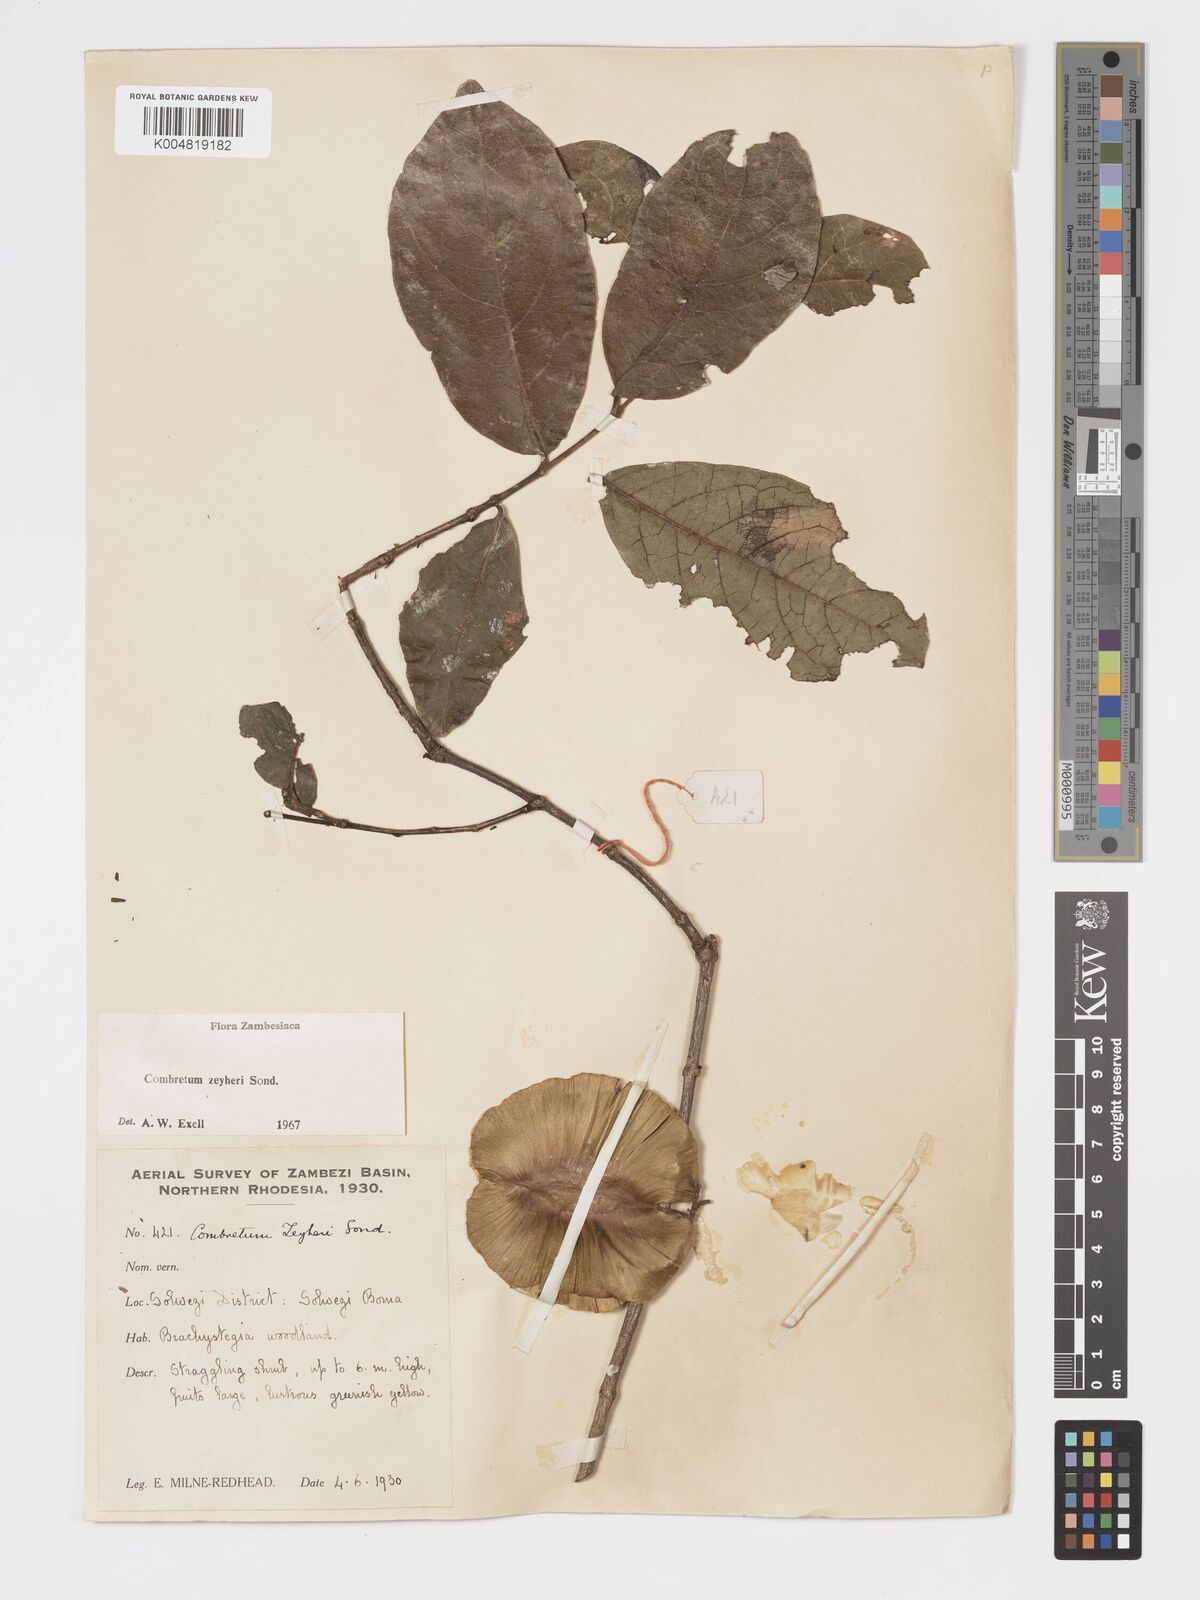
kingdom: Plantae
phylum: Tracheophyta
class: Magnoliopsida
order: Myrtales
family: Combretaceae
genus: Combretum
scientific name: Combretum zeyheri
